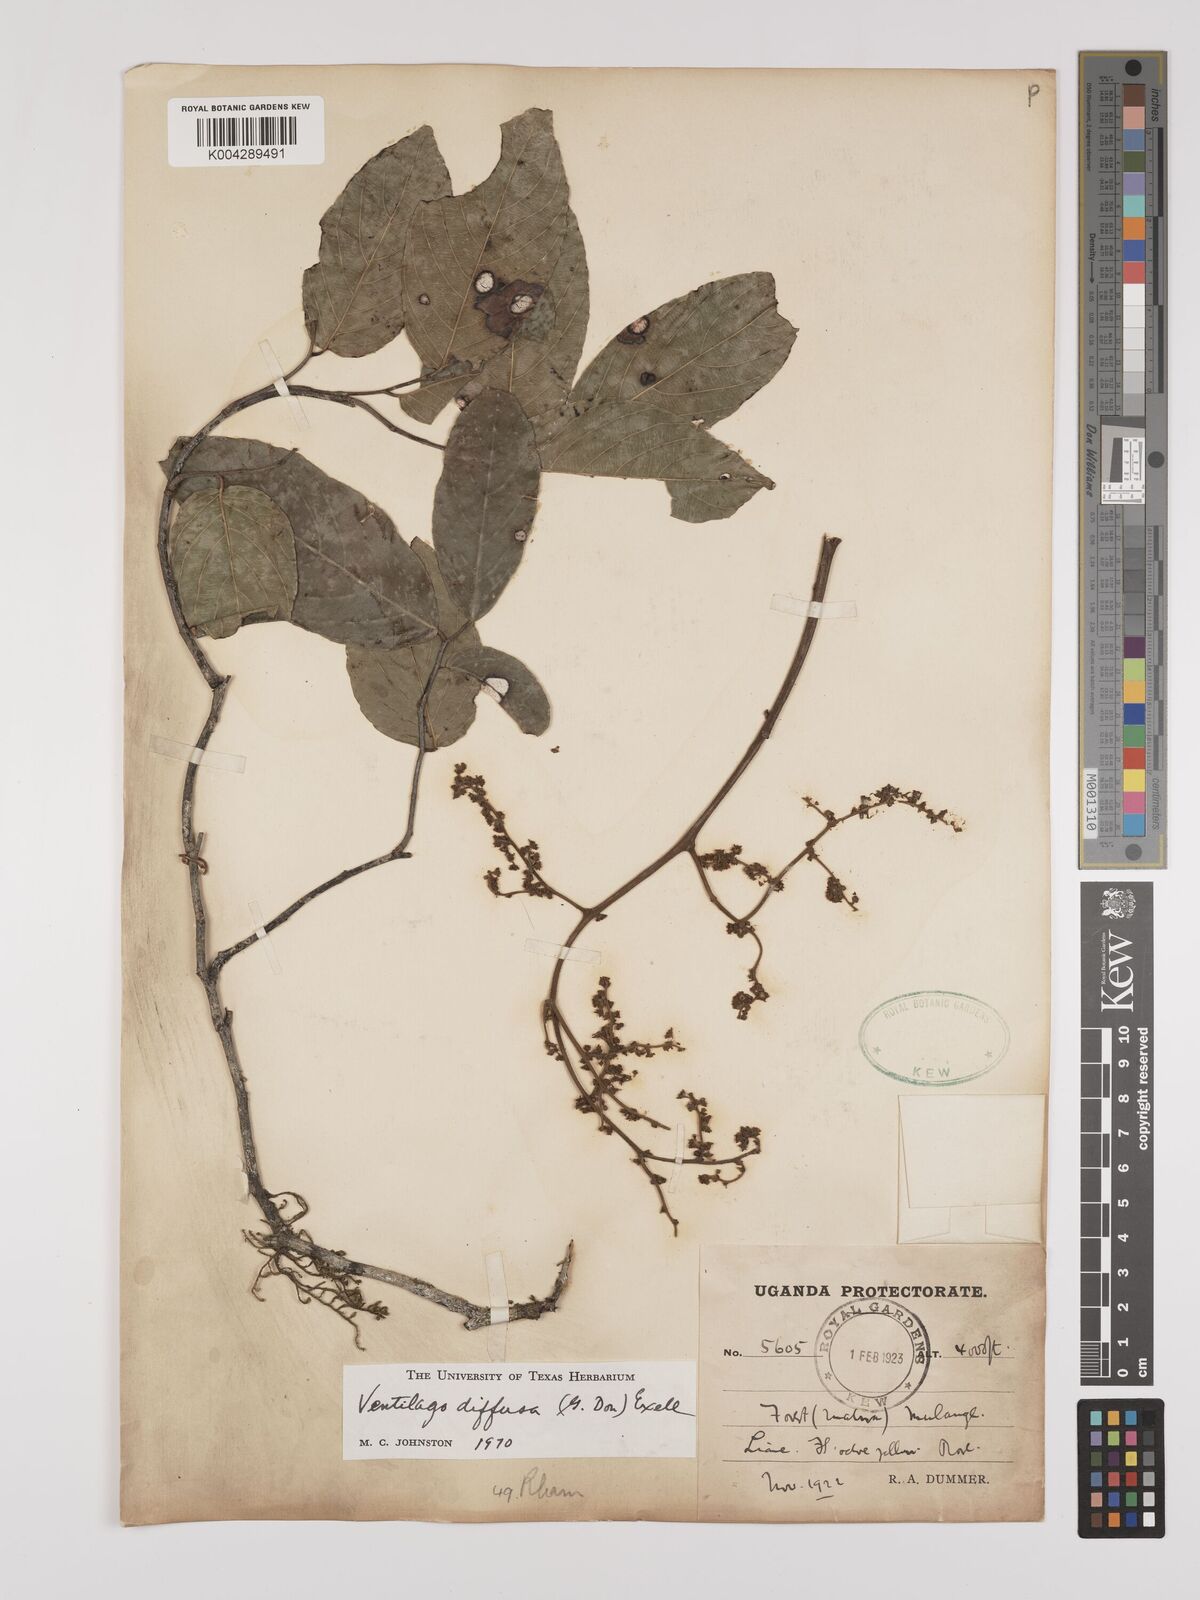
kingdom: Plantae
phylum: Tracheophyta
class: Magnoliopsida
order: Rosales
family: Rhamnaceae
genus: Ventilago
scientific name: Ventilago diffusa
